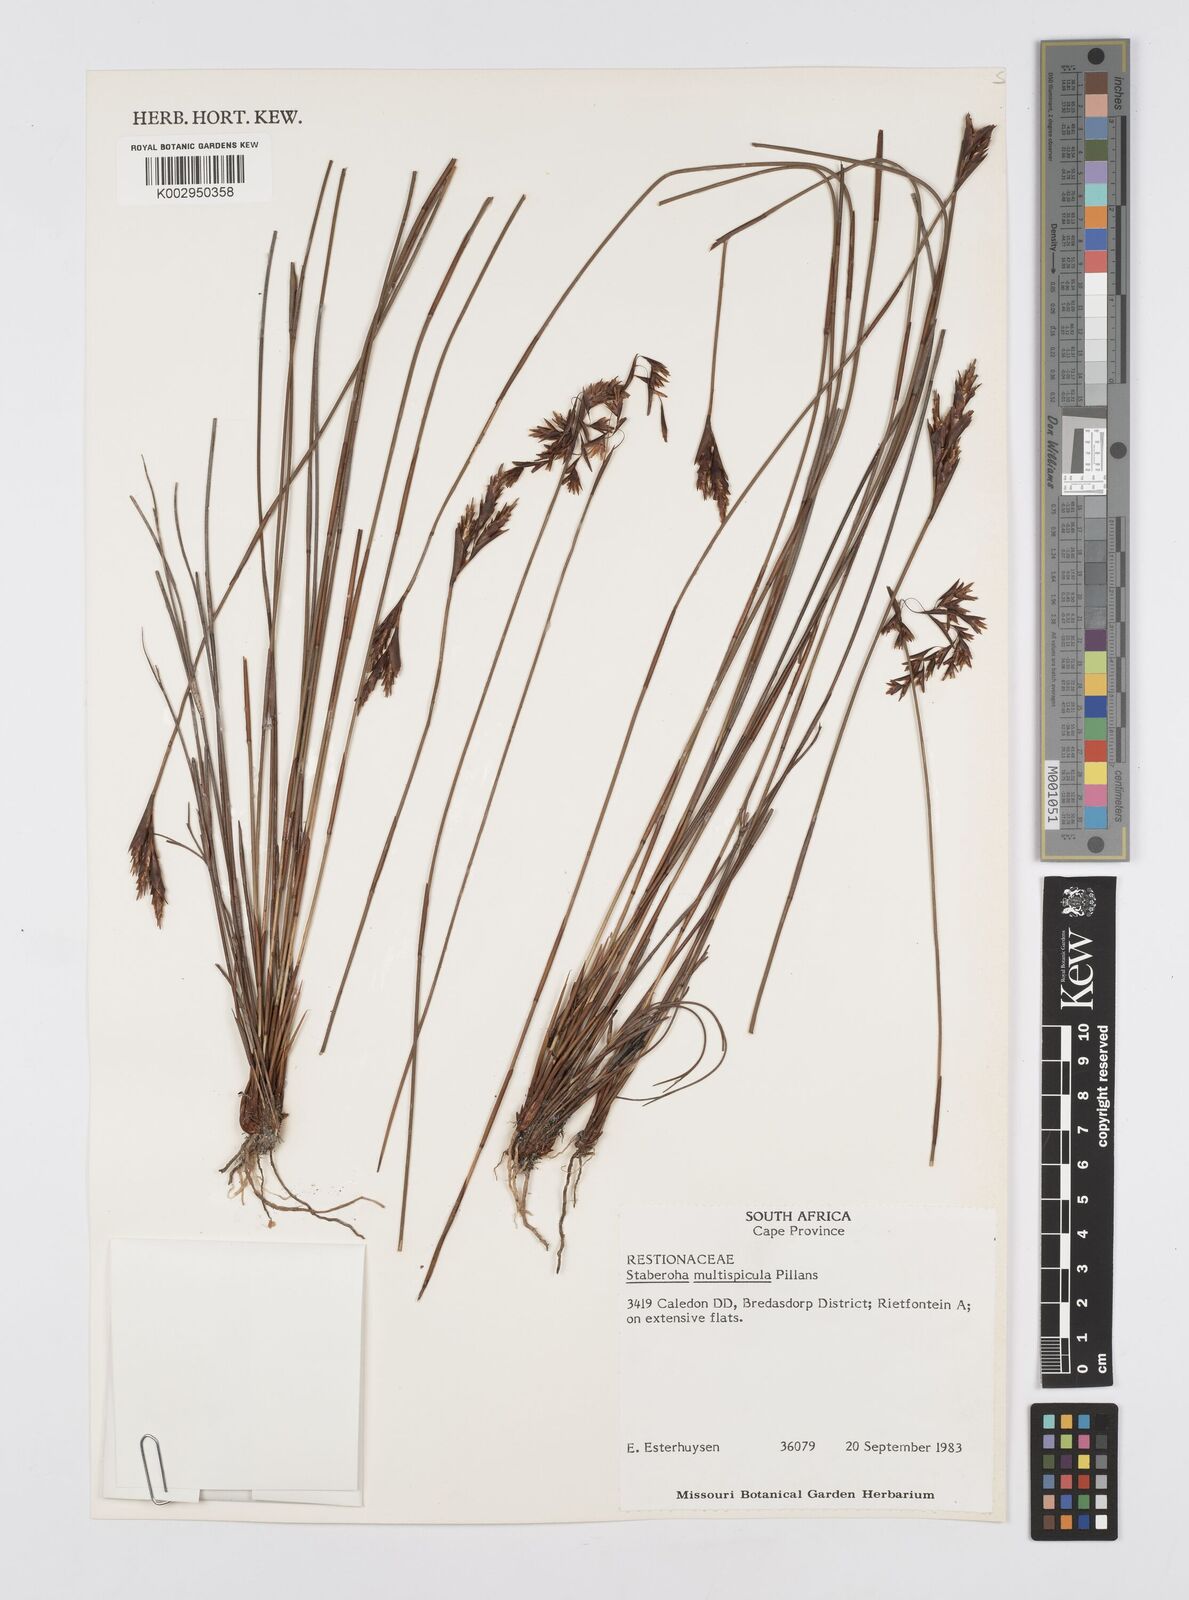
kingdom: Plantae
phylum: Tracheophyta
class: Liliopsida
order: Poales
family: Restionaceae
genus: Staberoha
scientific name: Staberoha multispicula
